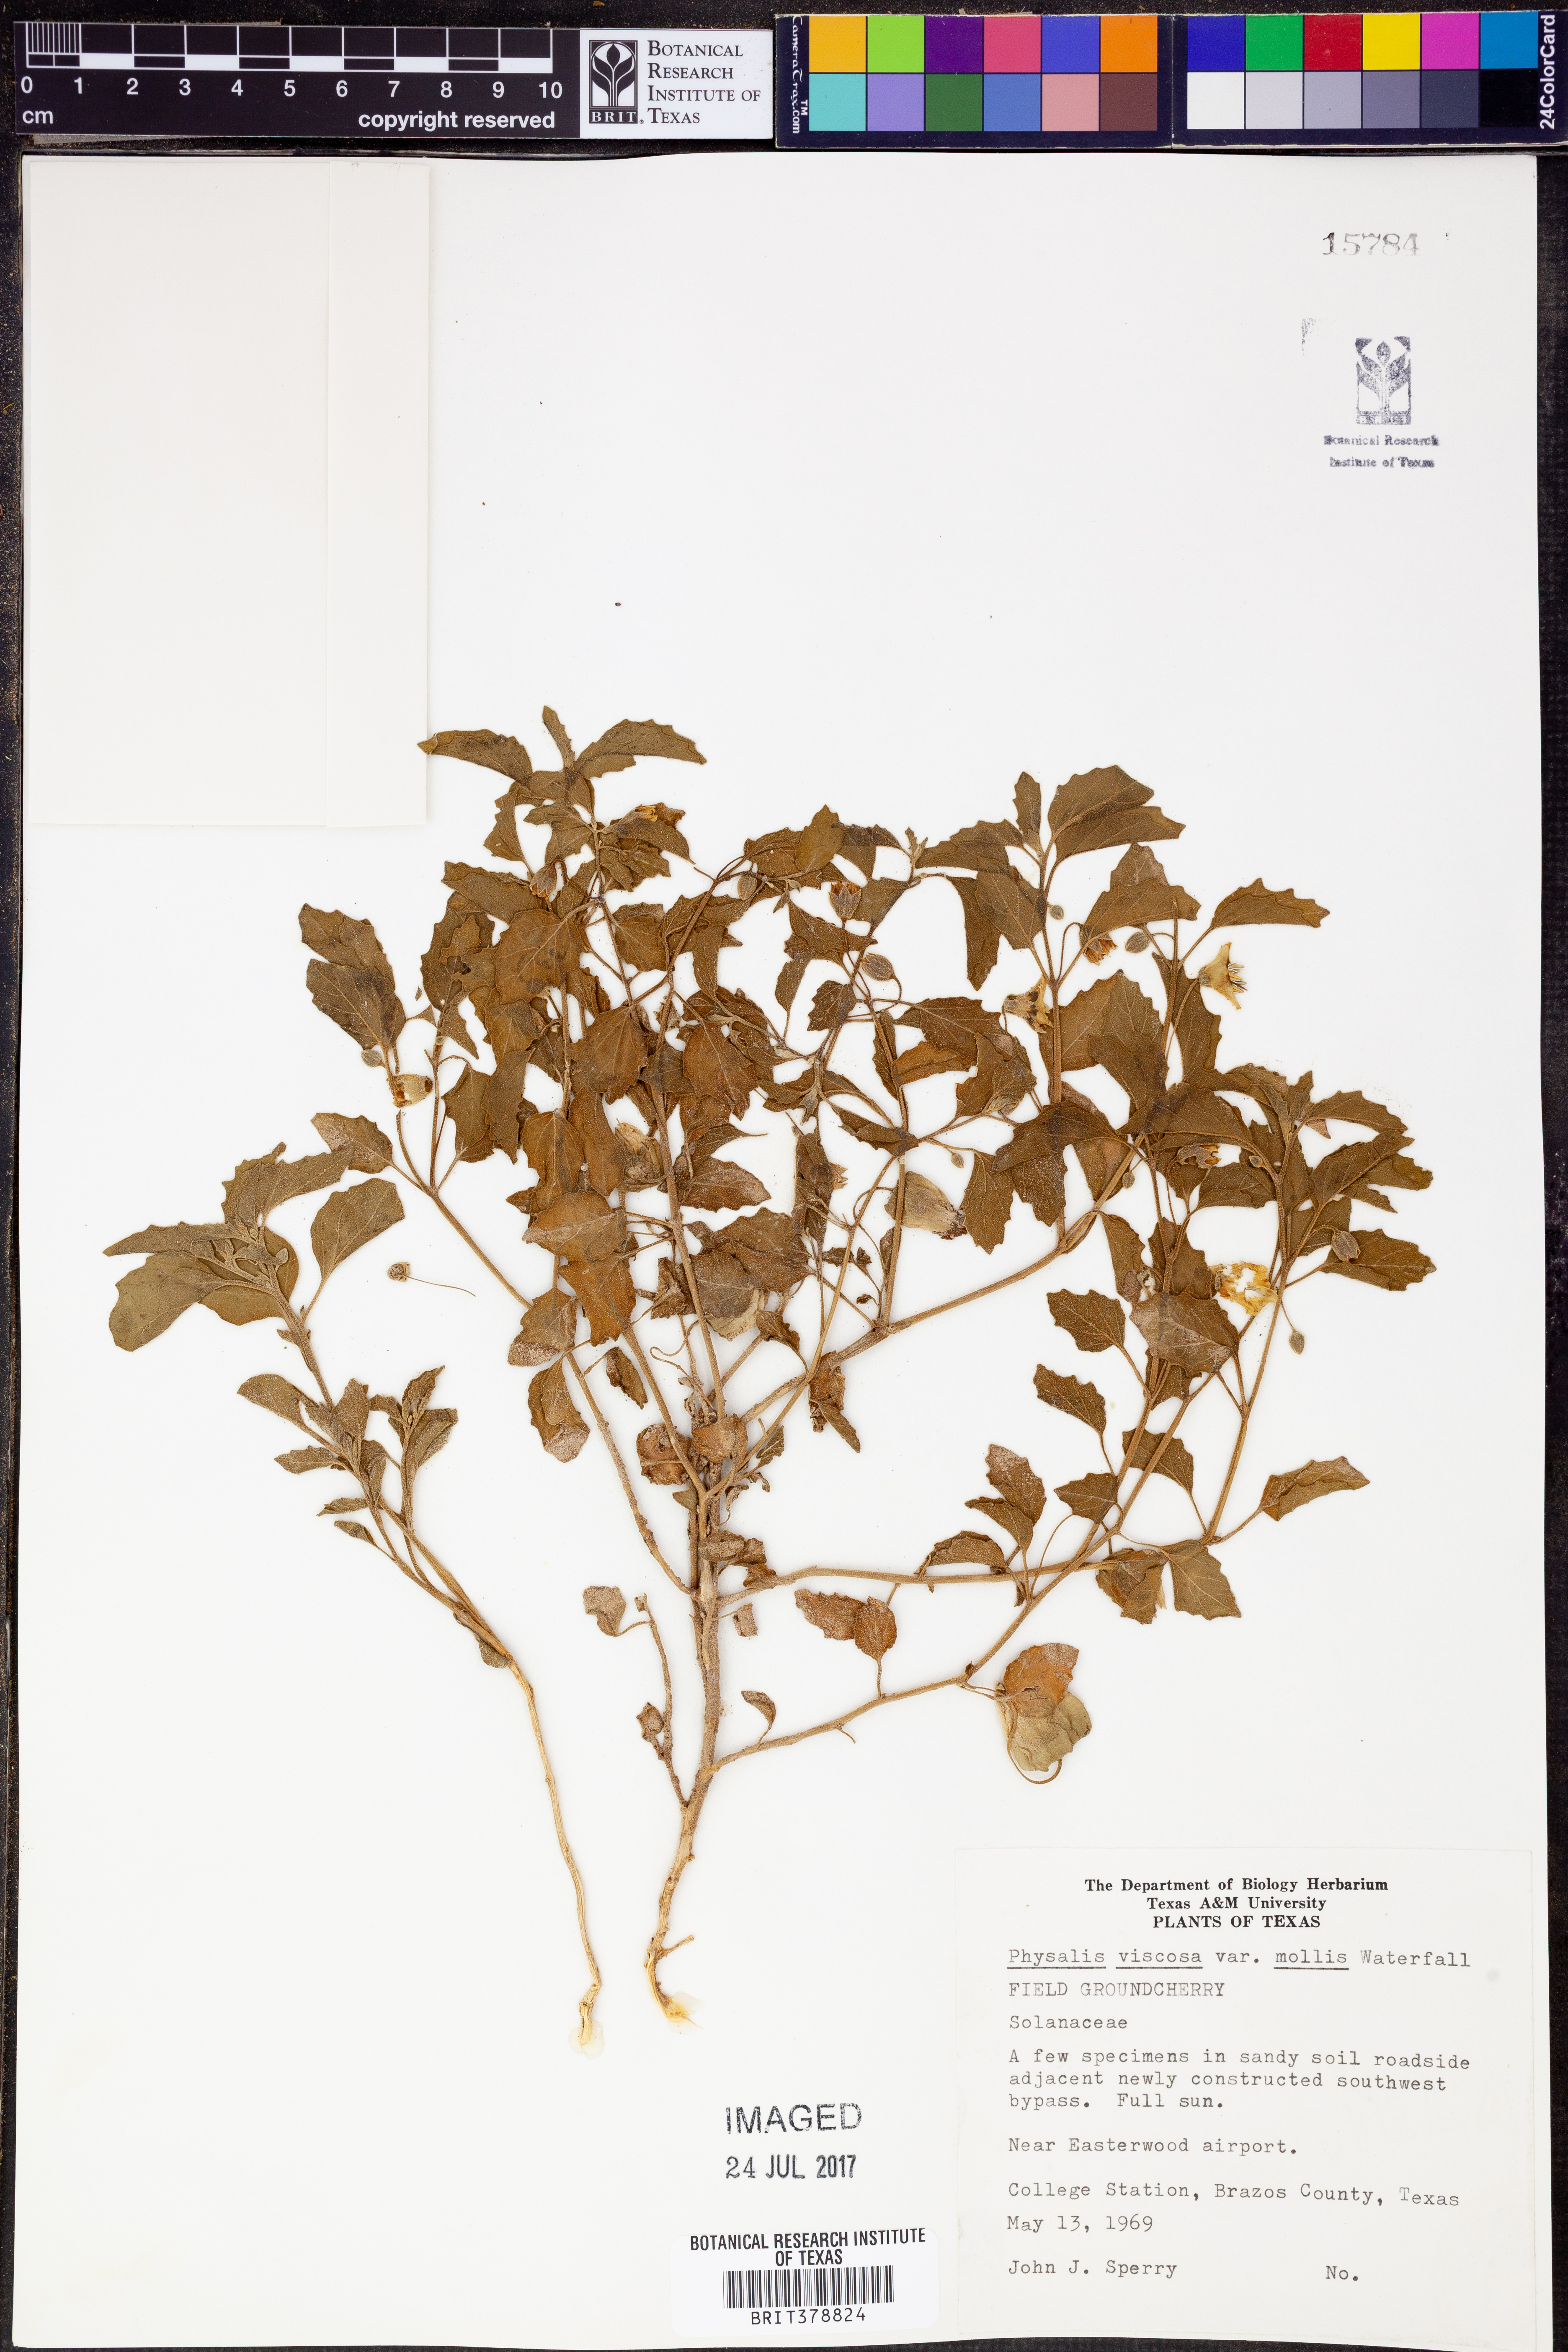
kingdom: Plantae
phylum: Tracheophyta
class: Magnoliopsida
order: Solanales
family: Solanaceae
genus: Physalis
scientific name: Physalis
